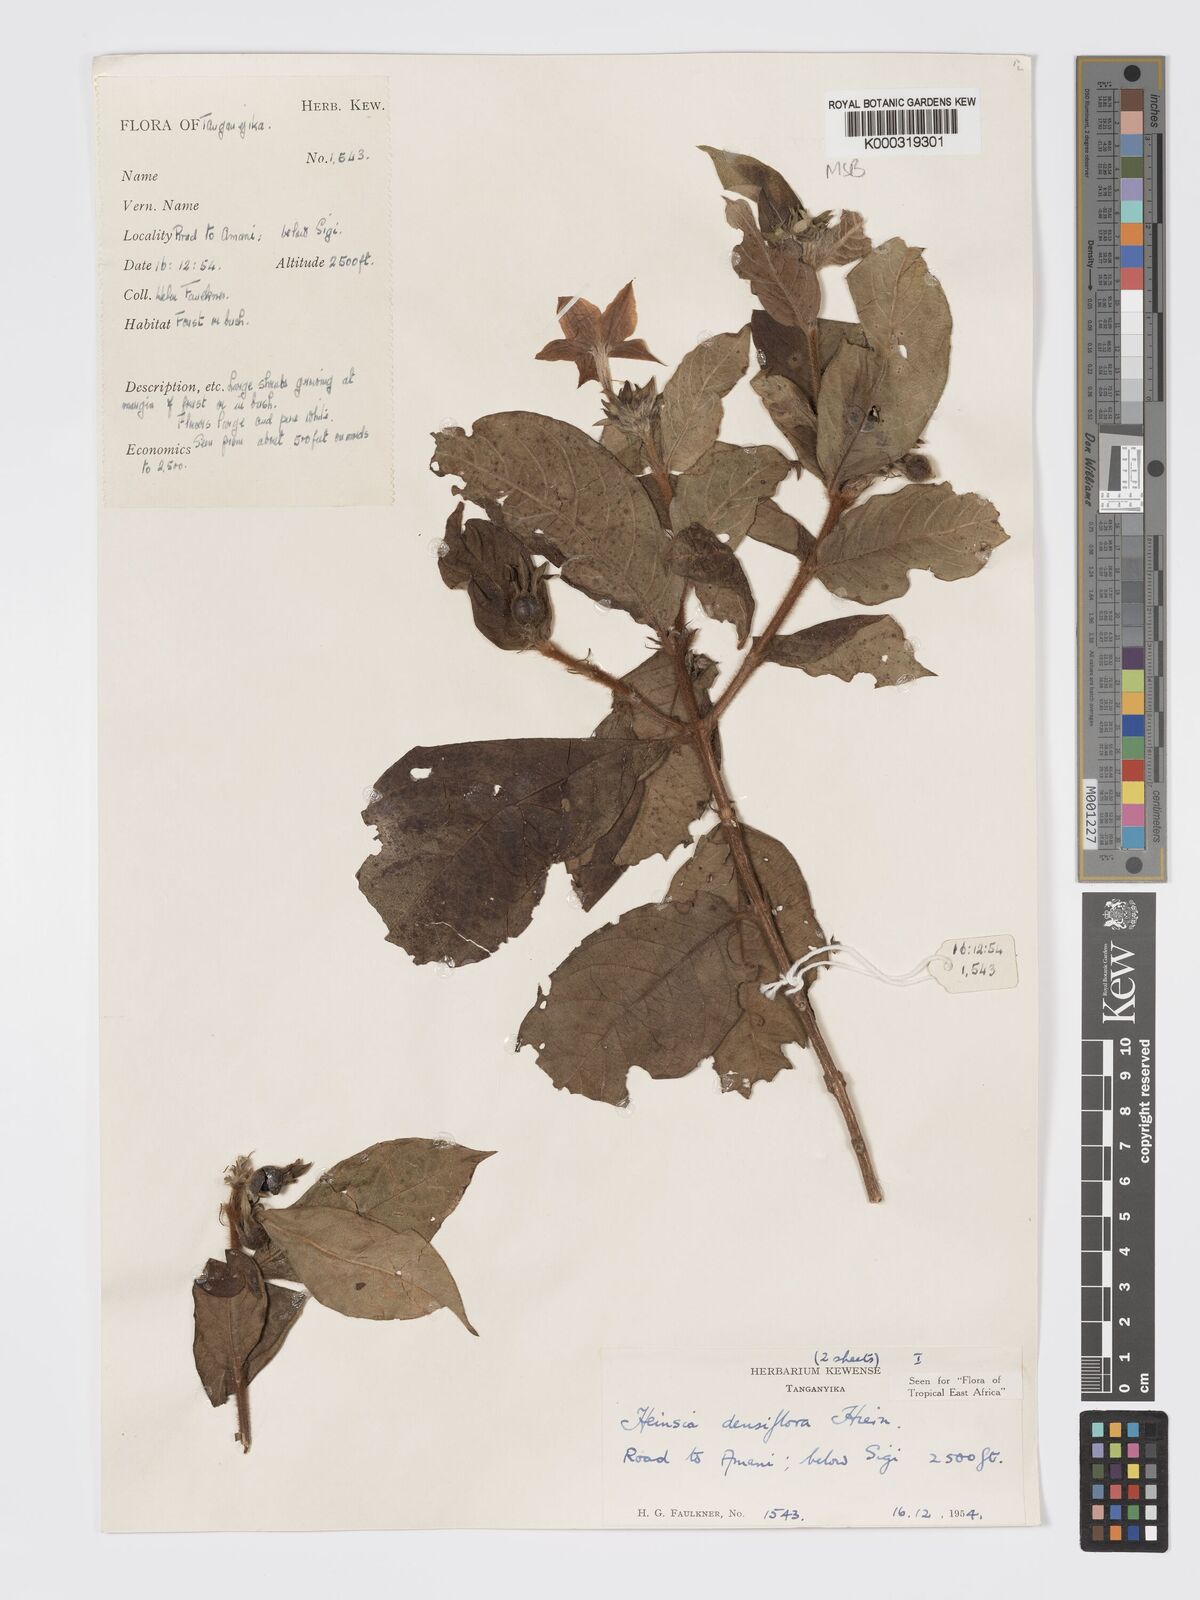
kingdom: Plantae
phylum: Tracheophyta
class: Magnoliopsida
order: Gentianales
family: Rubiaceae
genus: Heinsia
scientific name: Heinsia zanzibarica
